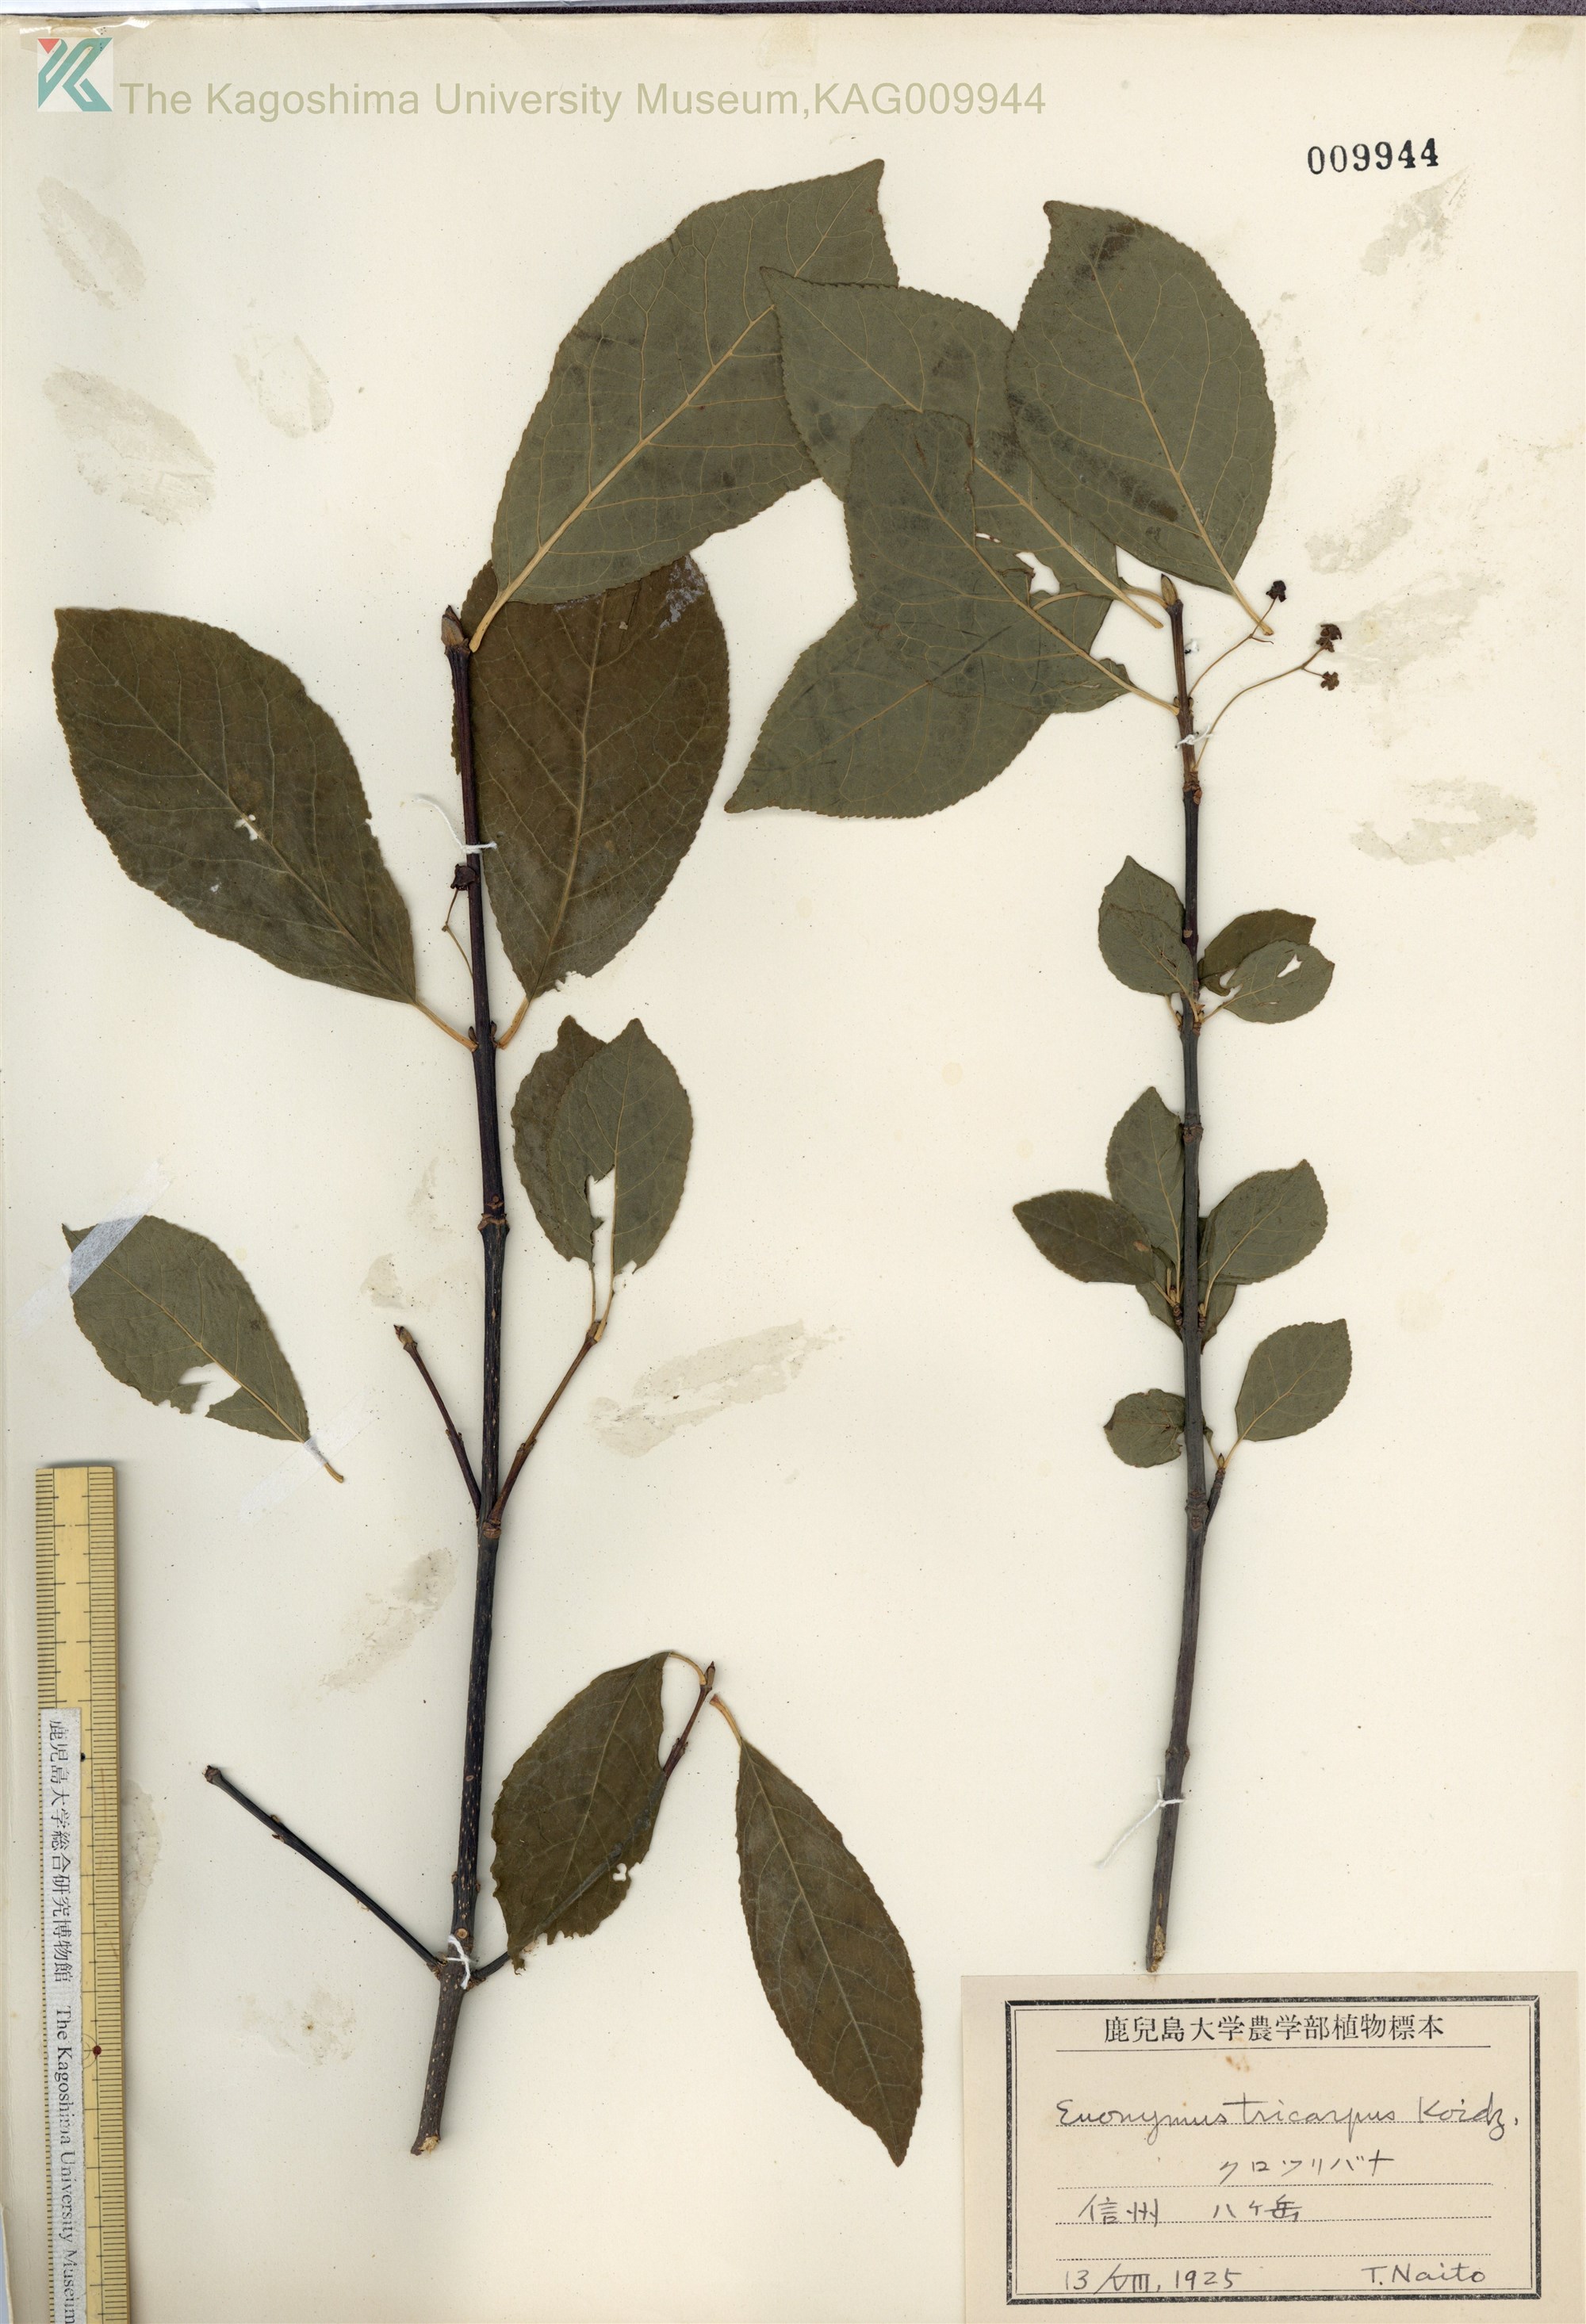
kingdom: Plantae
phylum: Tracheophyta
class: Magnoliopsida
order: Celastrales
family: Celastraceae
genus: Euonymus
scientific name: Euonymus sachalinensis
